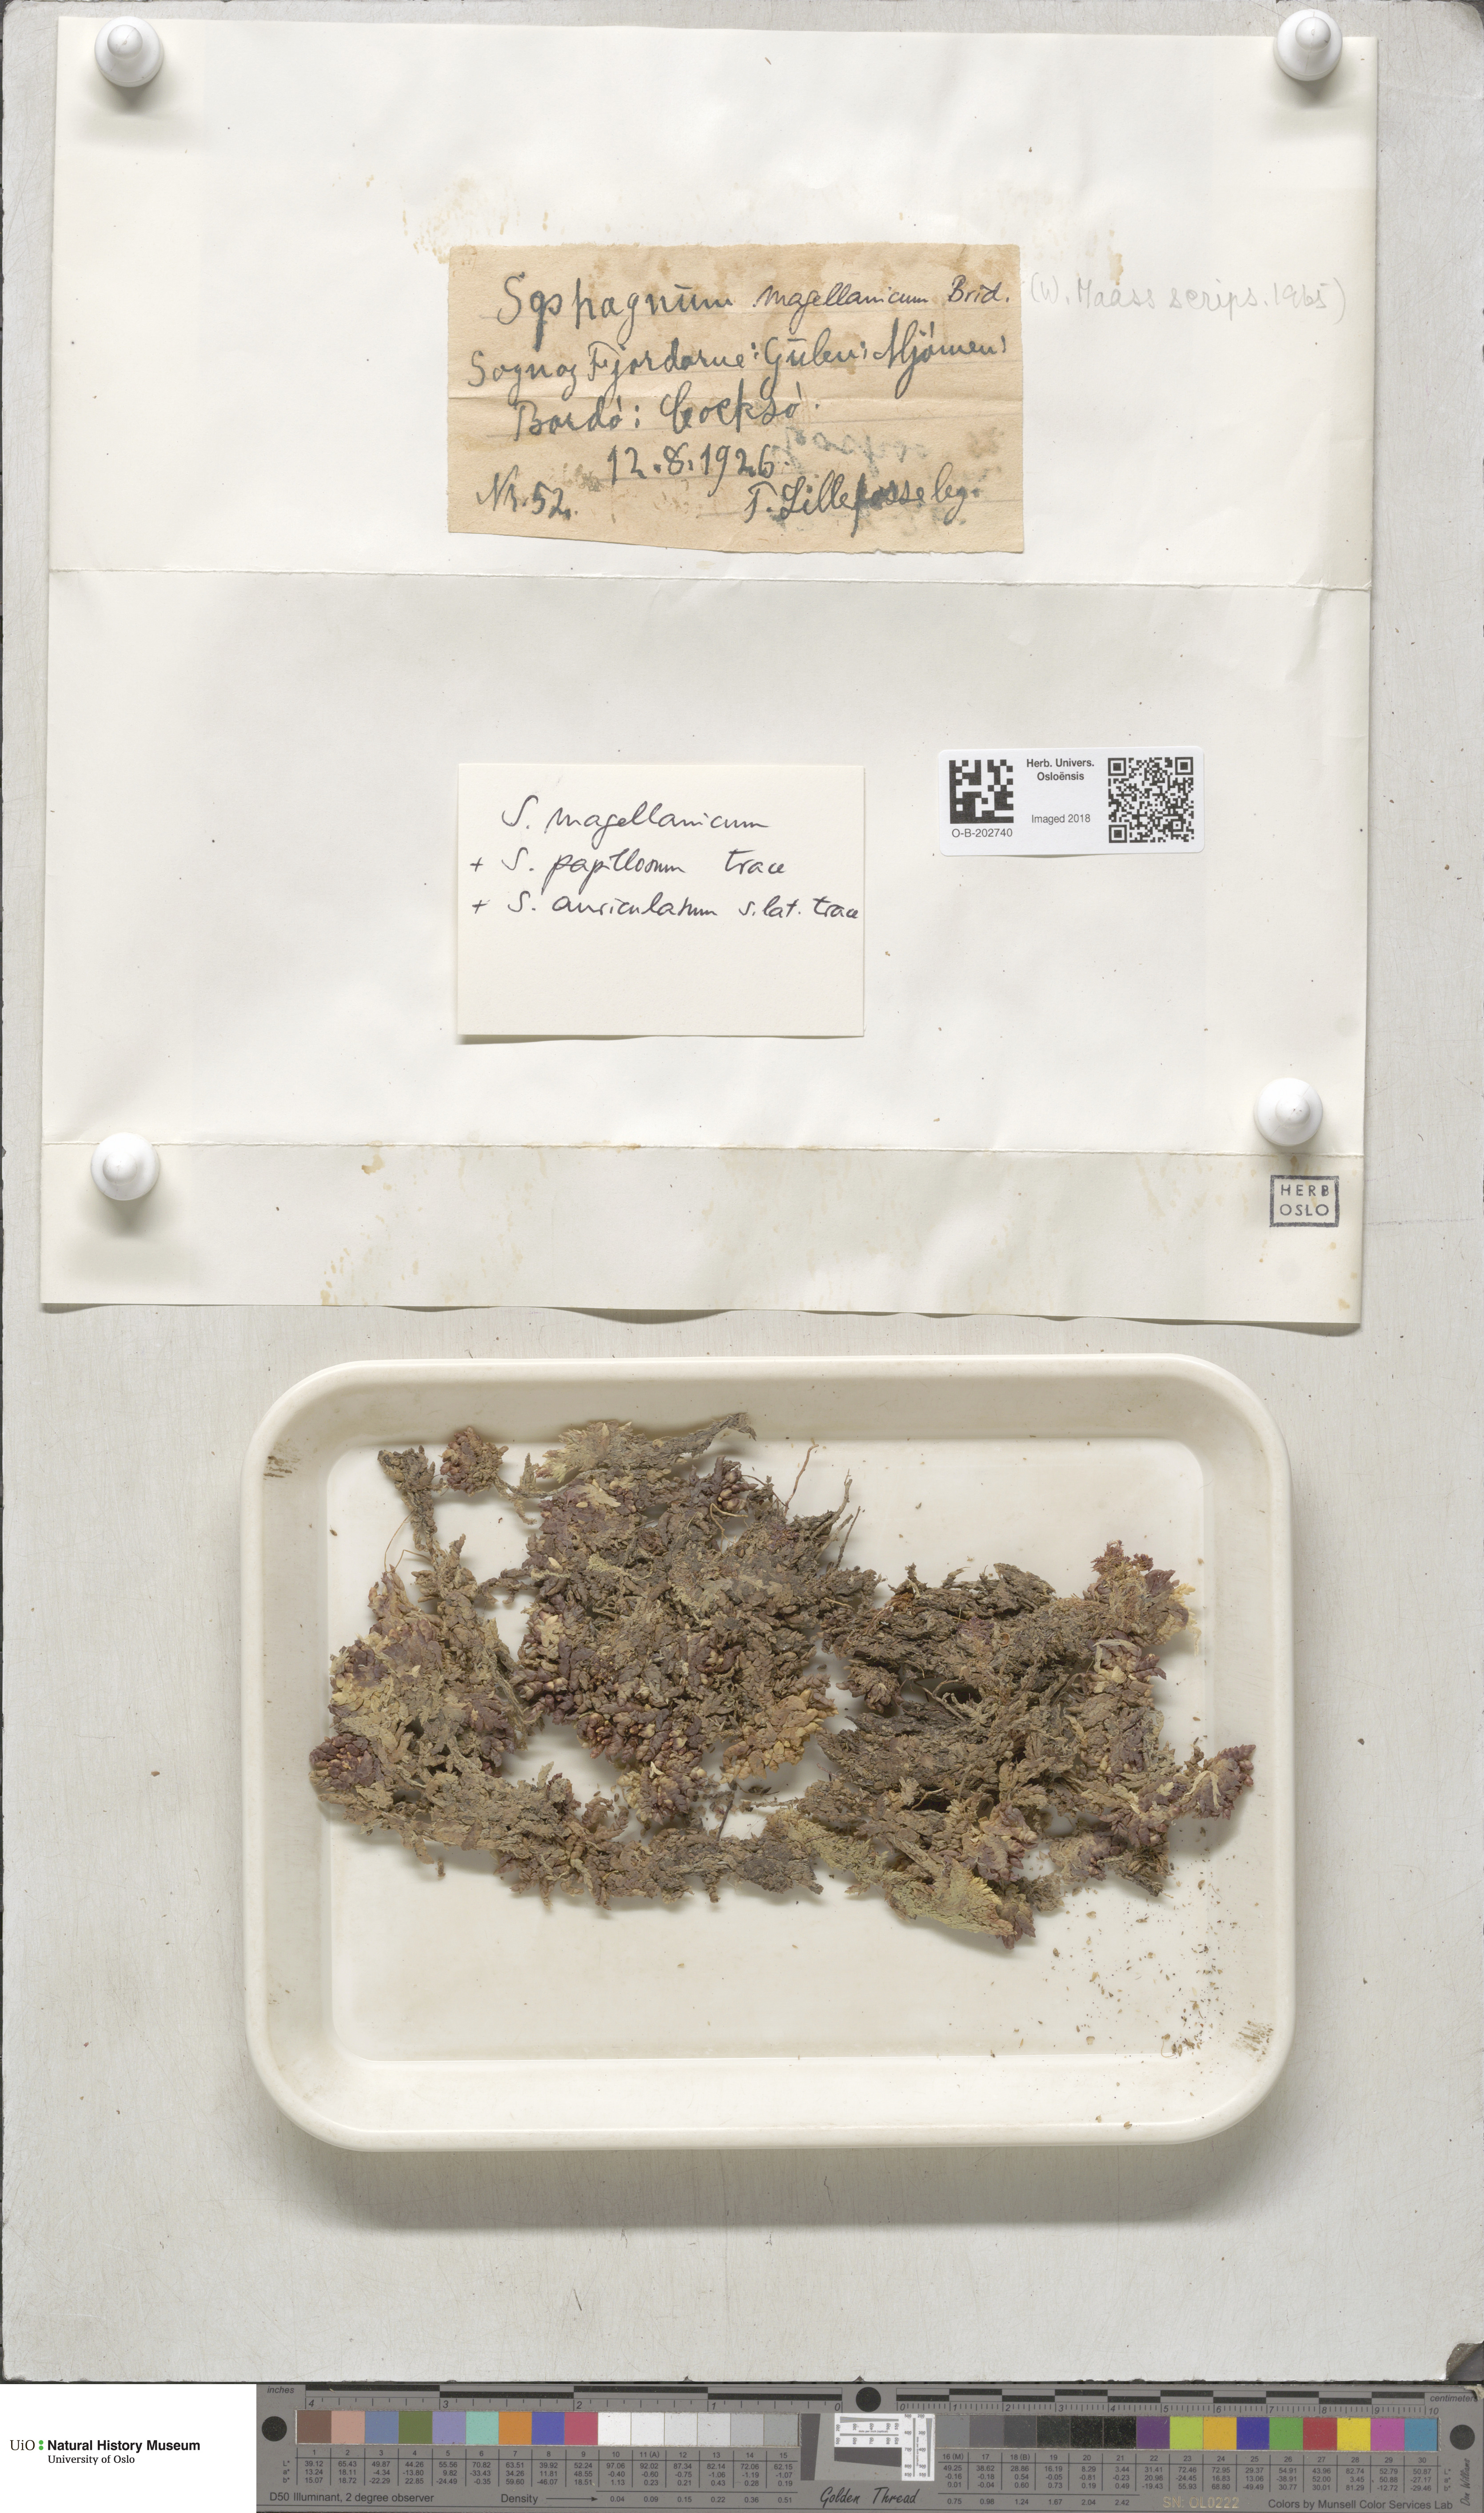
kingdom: Plantae
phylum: Bryophyta
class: Sphagnopsida
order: Sphagnales
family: Sphagnaceae
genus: Sphagnum
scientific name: Sphagnum magellanicum
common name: Magellan's peat moss
